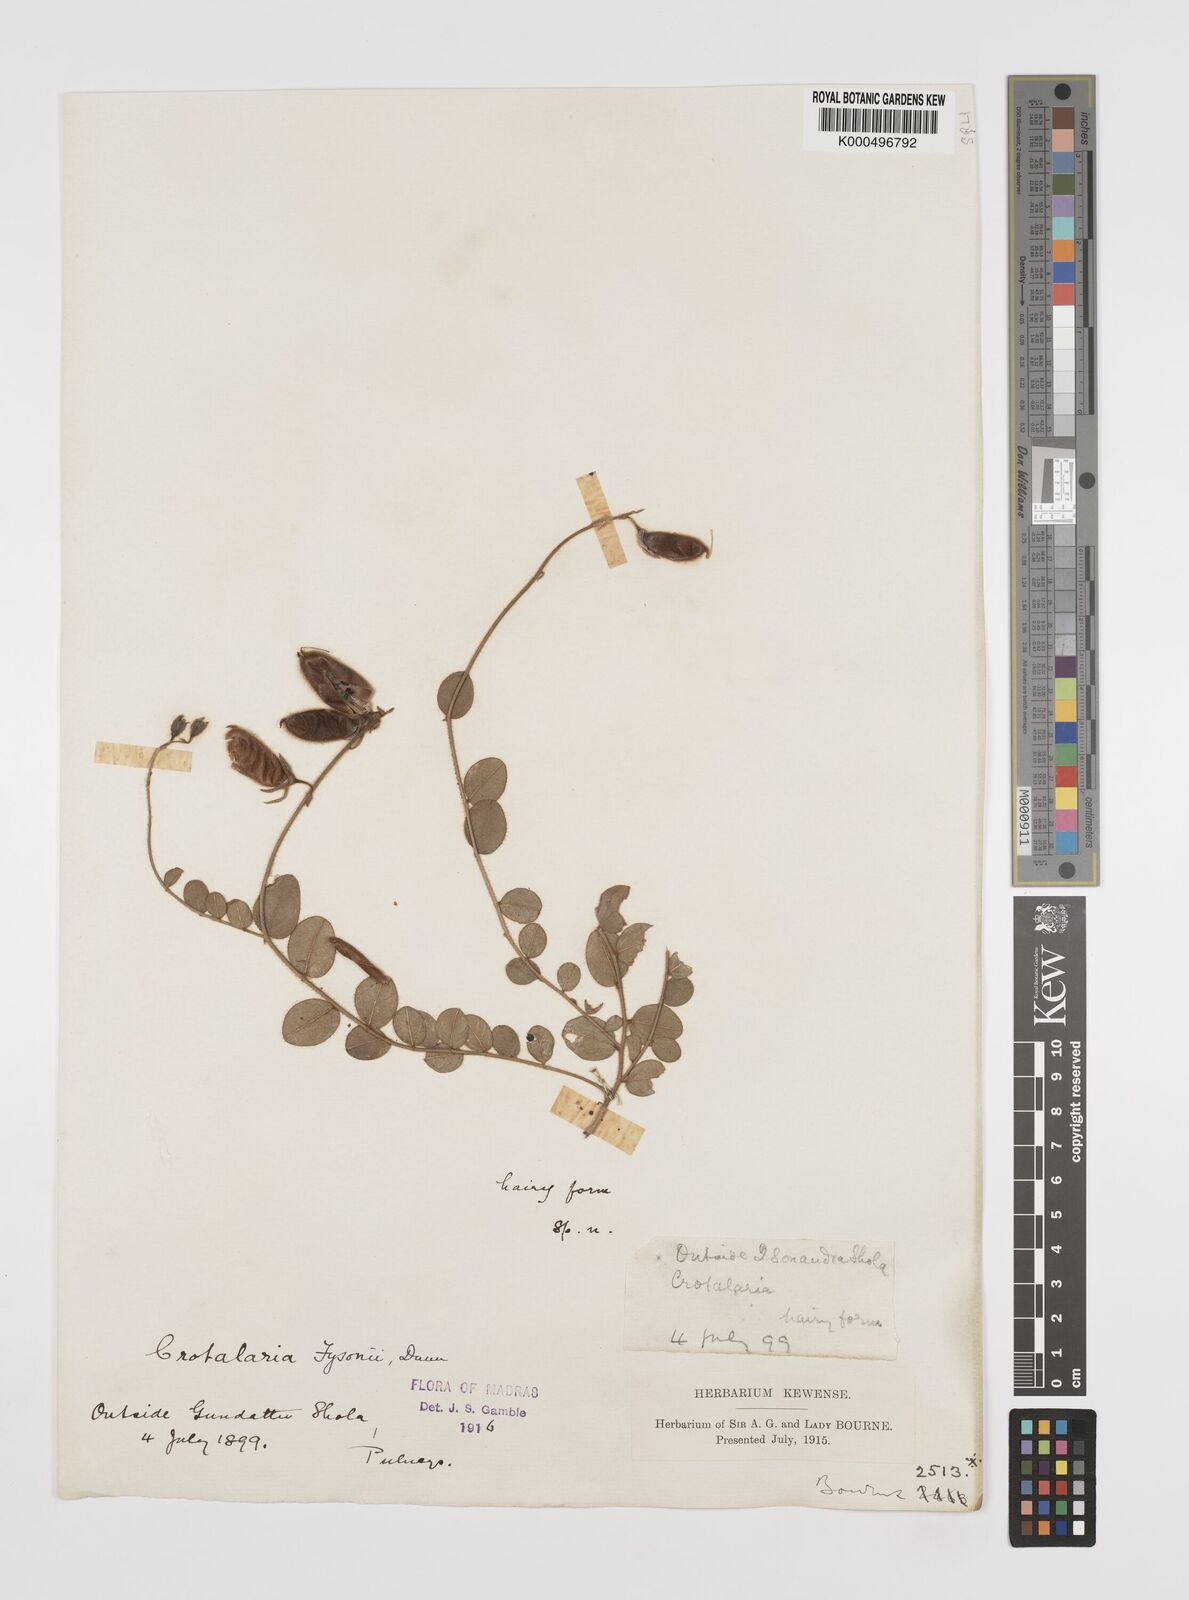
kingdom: Plantae
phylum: Tracheophyta
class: Magnoliopsida
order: Fabales
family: Fabaceae
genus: Crotalaria
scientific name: Crotalaria fysonii
